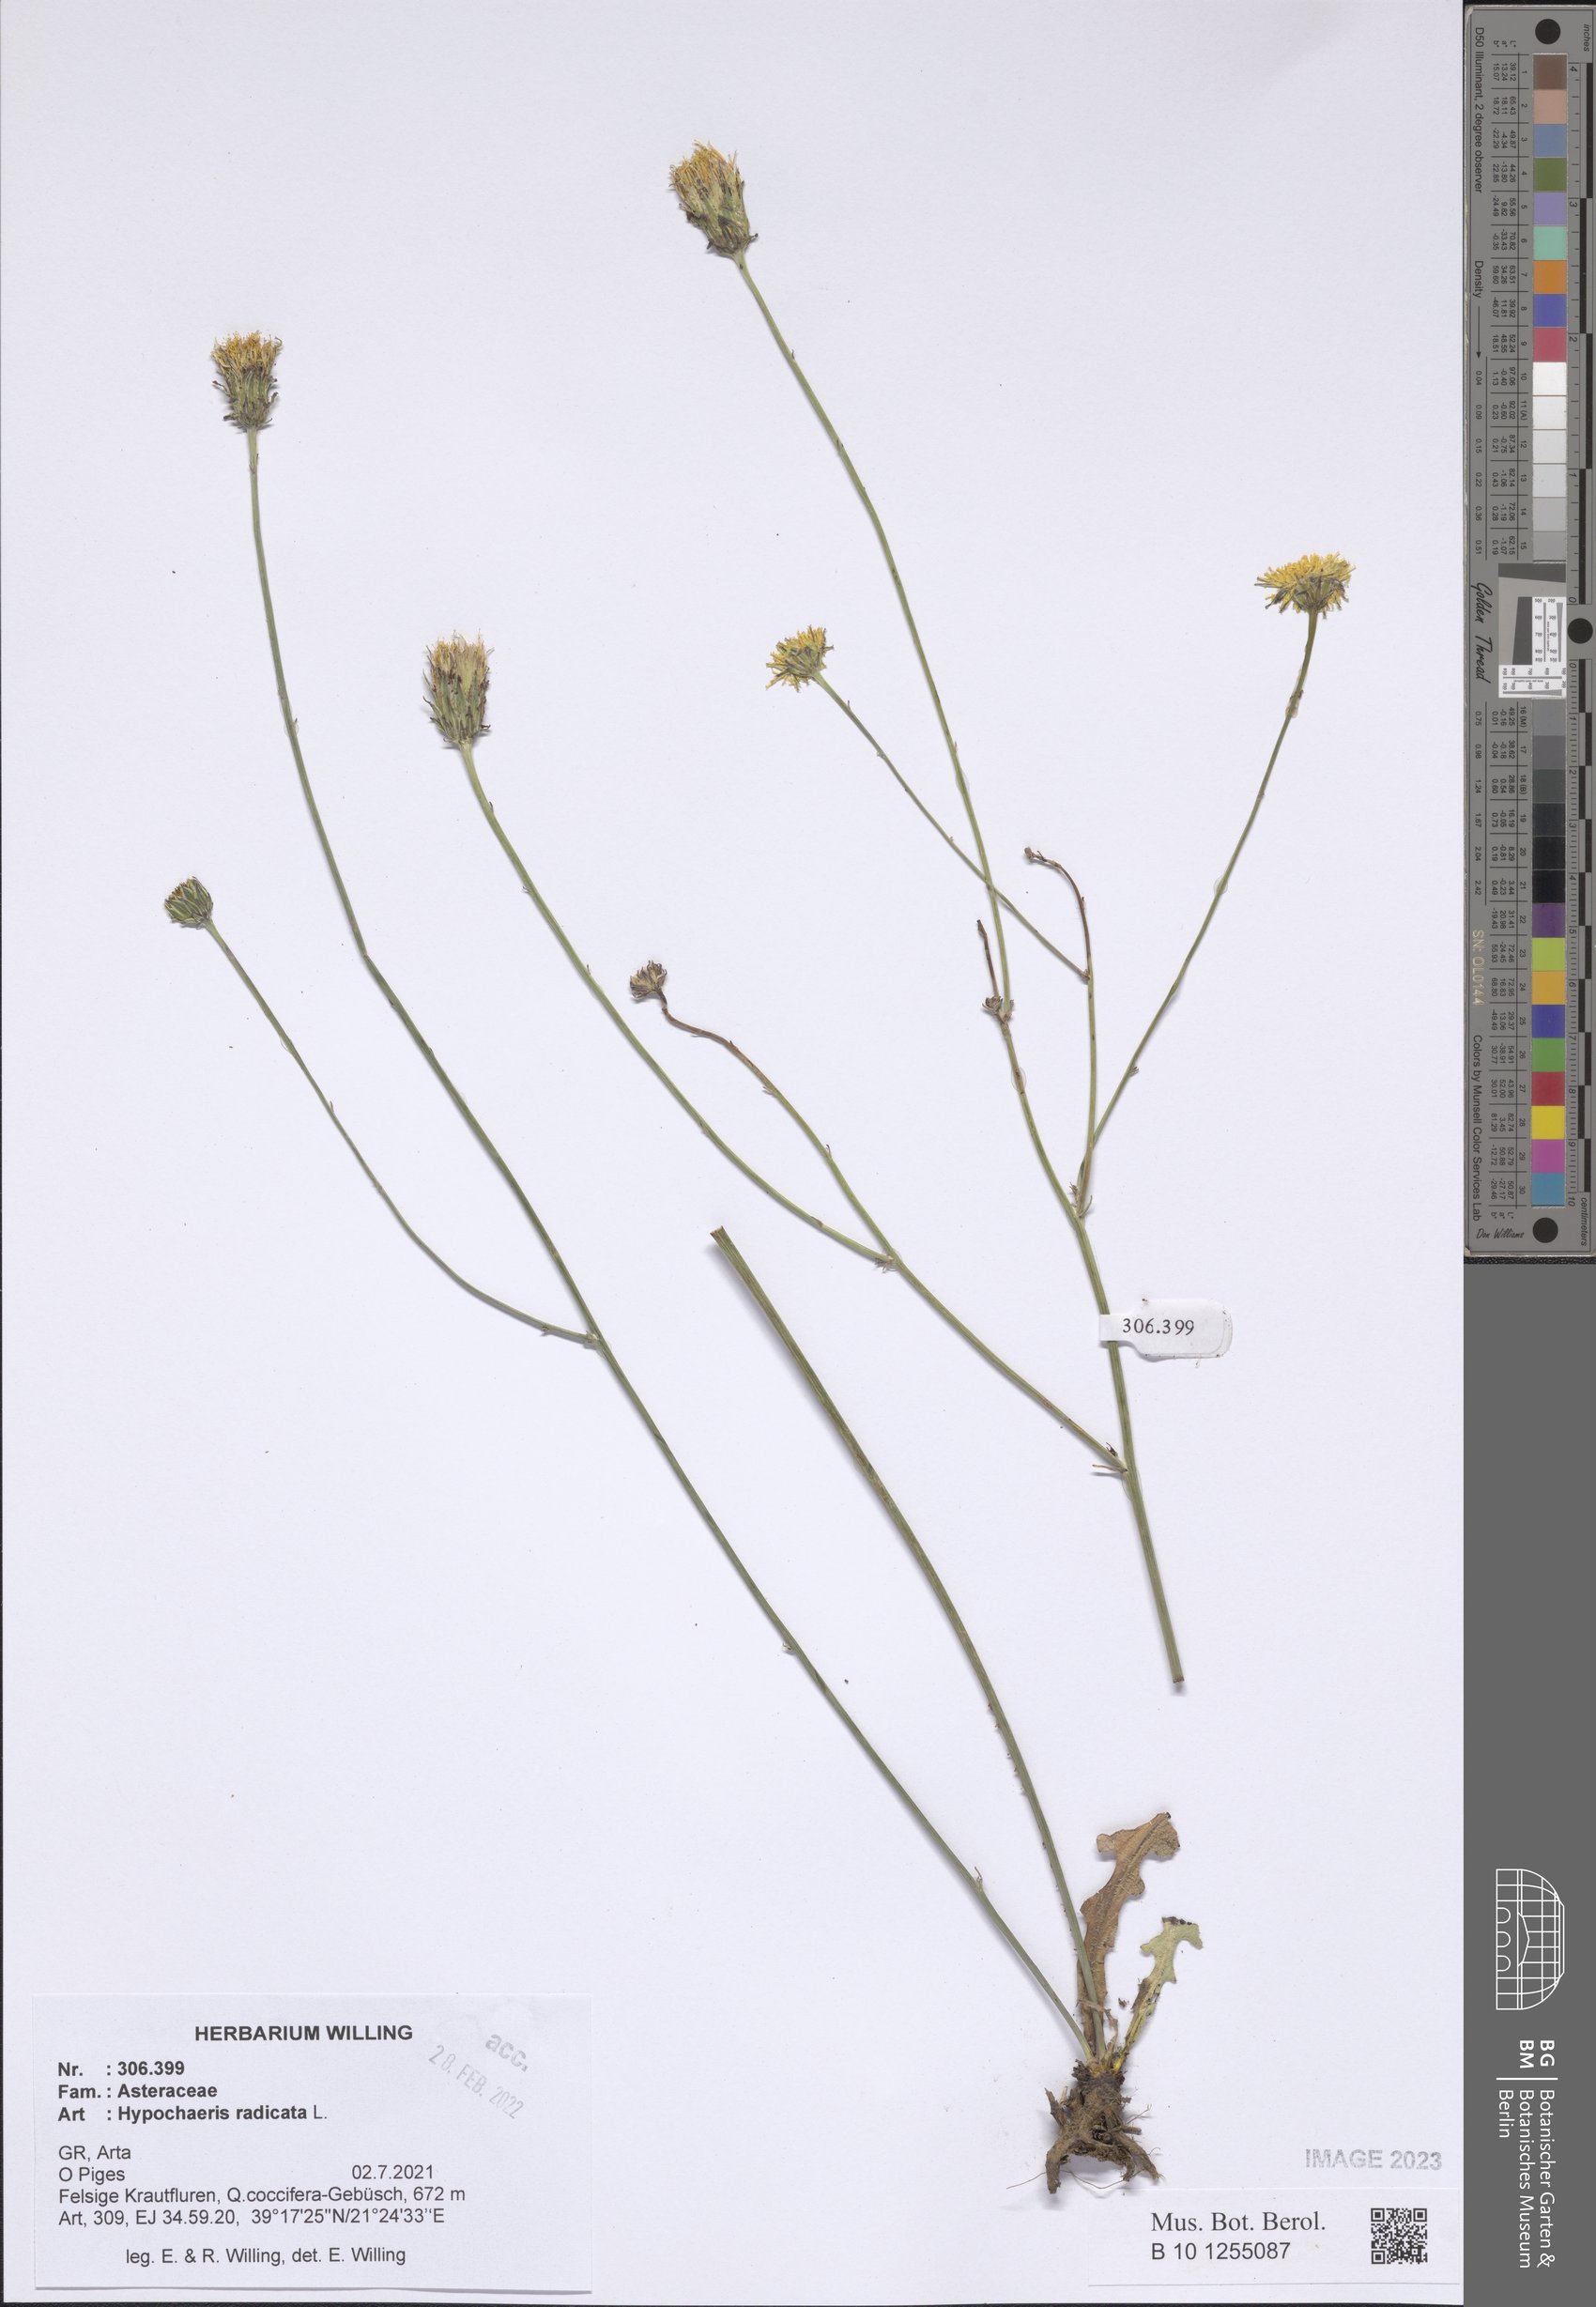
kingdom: Plantae
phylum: Tracheophyta
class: Magnoliopsida
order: Asterales
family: Asteraceae
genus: Hypochaeris
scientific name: Hypochaeris radicata
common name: Flatweed
